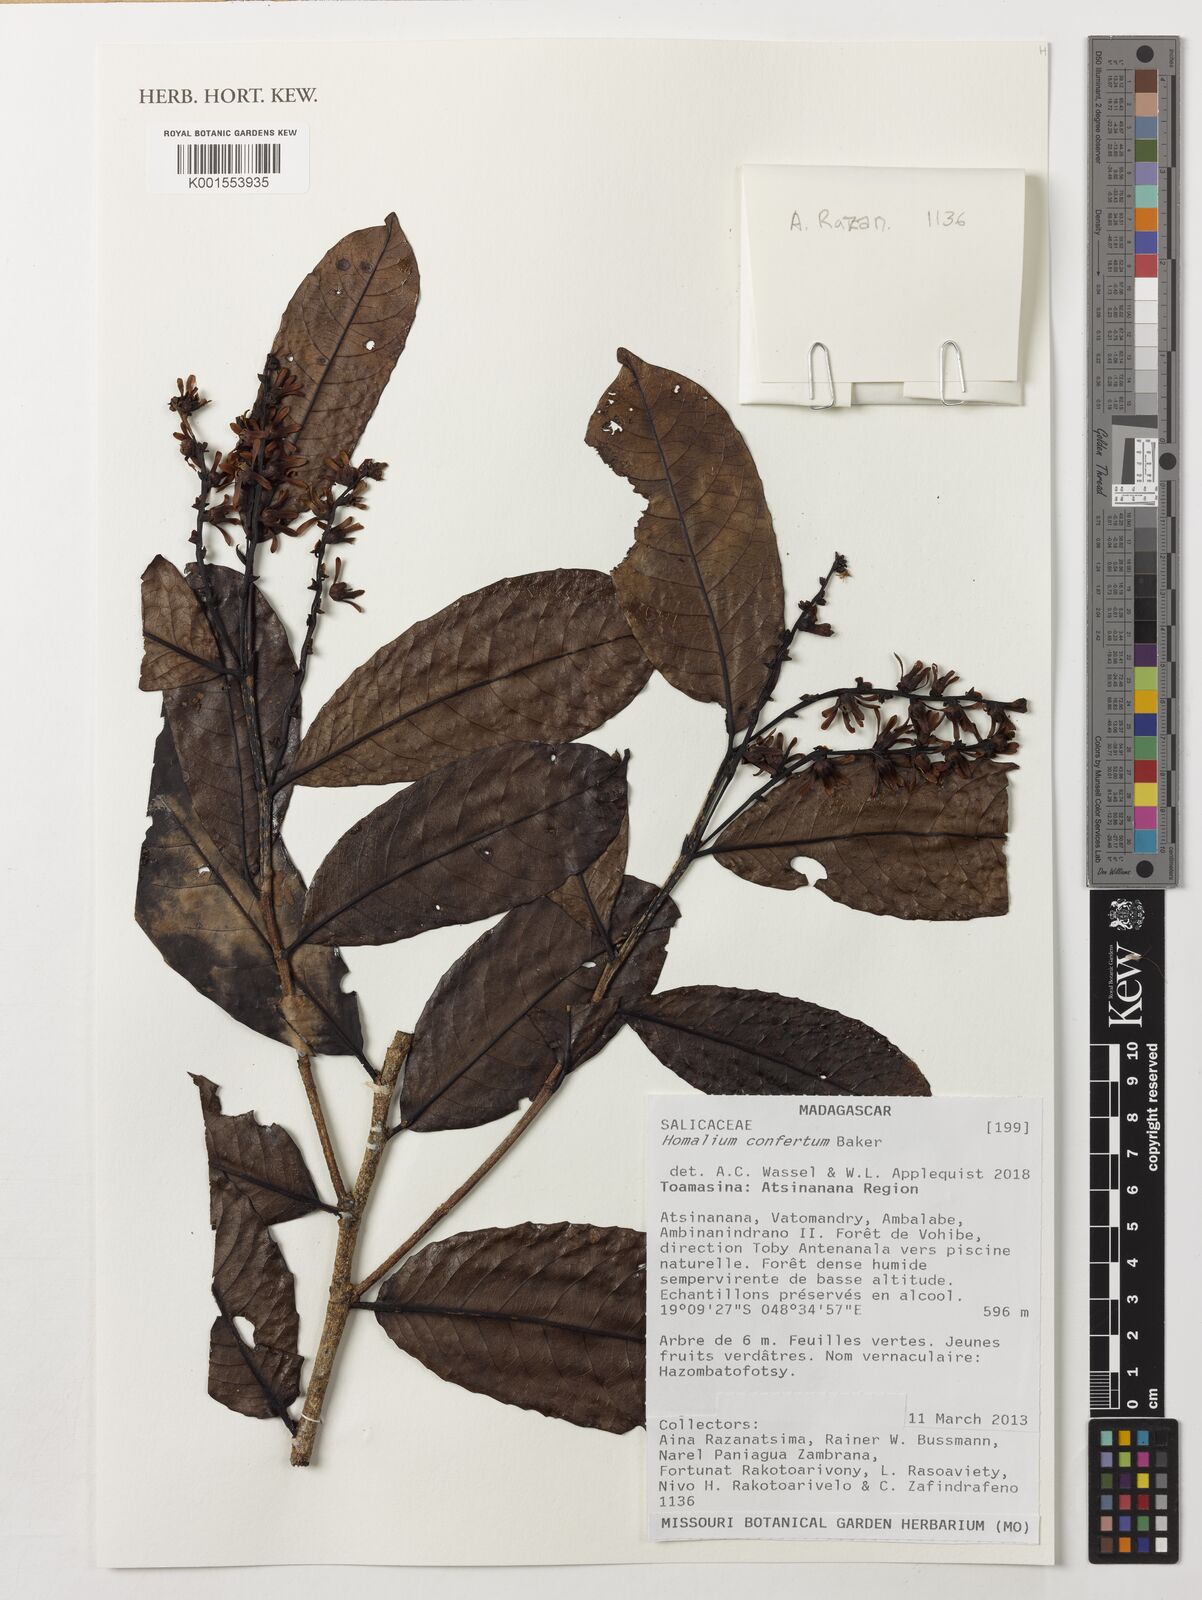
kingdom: Plantae
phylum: Tracheophyta
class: Magnoliopsida
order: Malpighiales
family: Salicaceae
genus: Homalium
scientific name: Homalium nudiflorum
